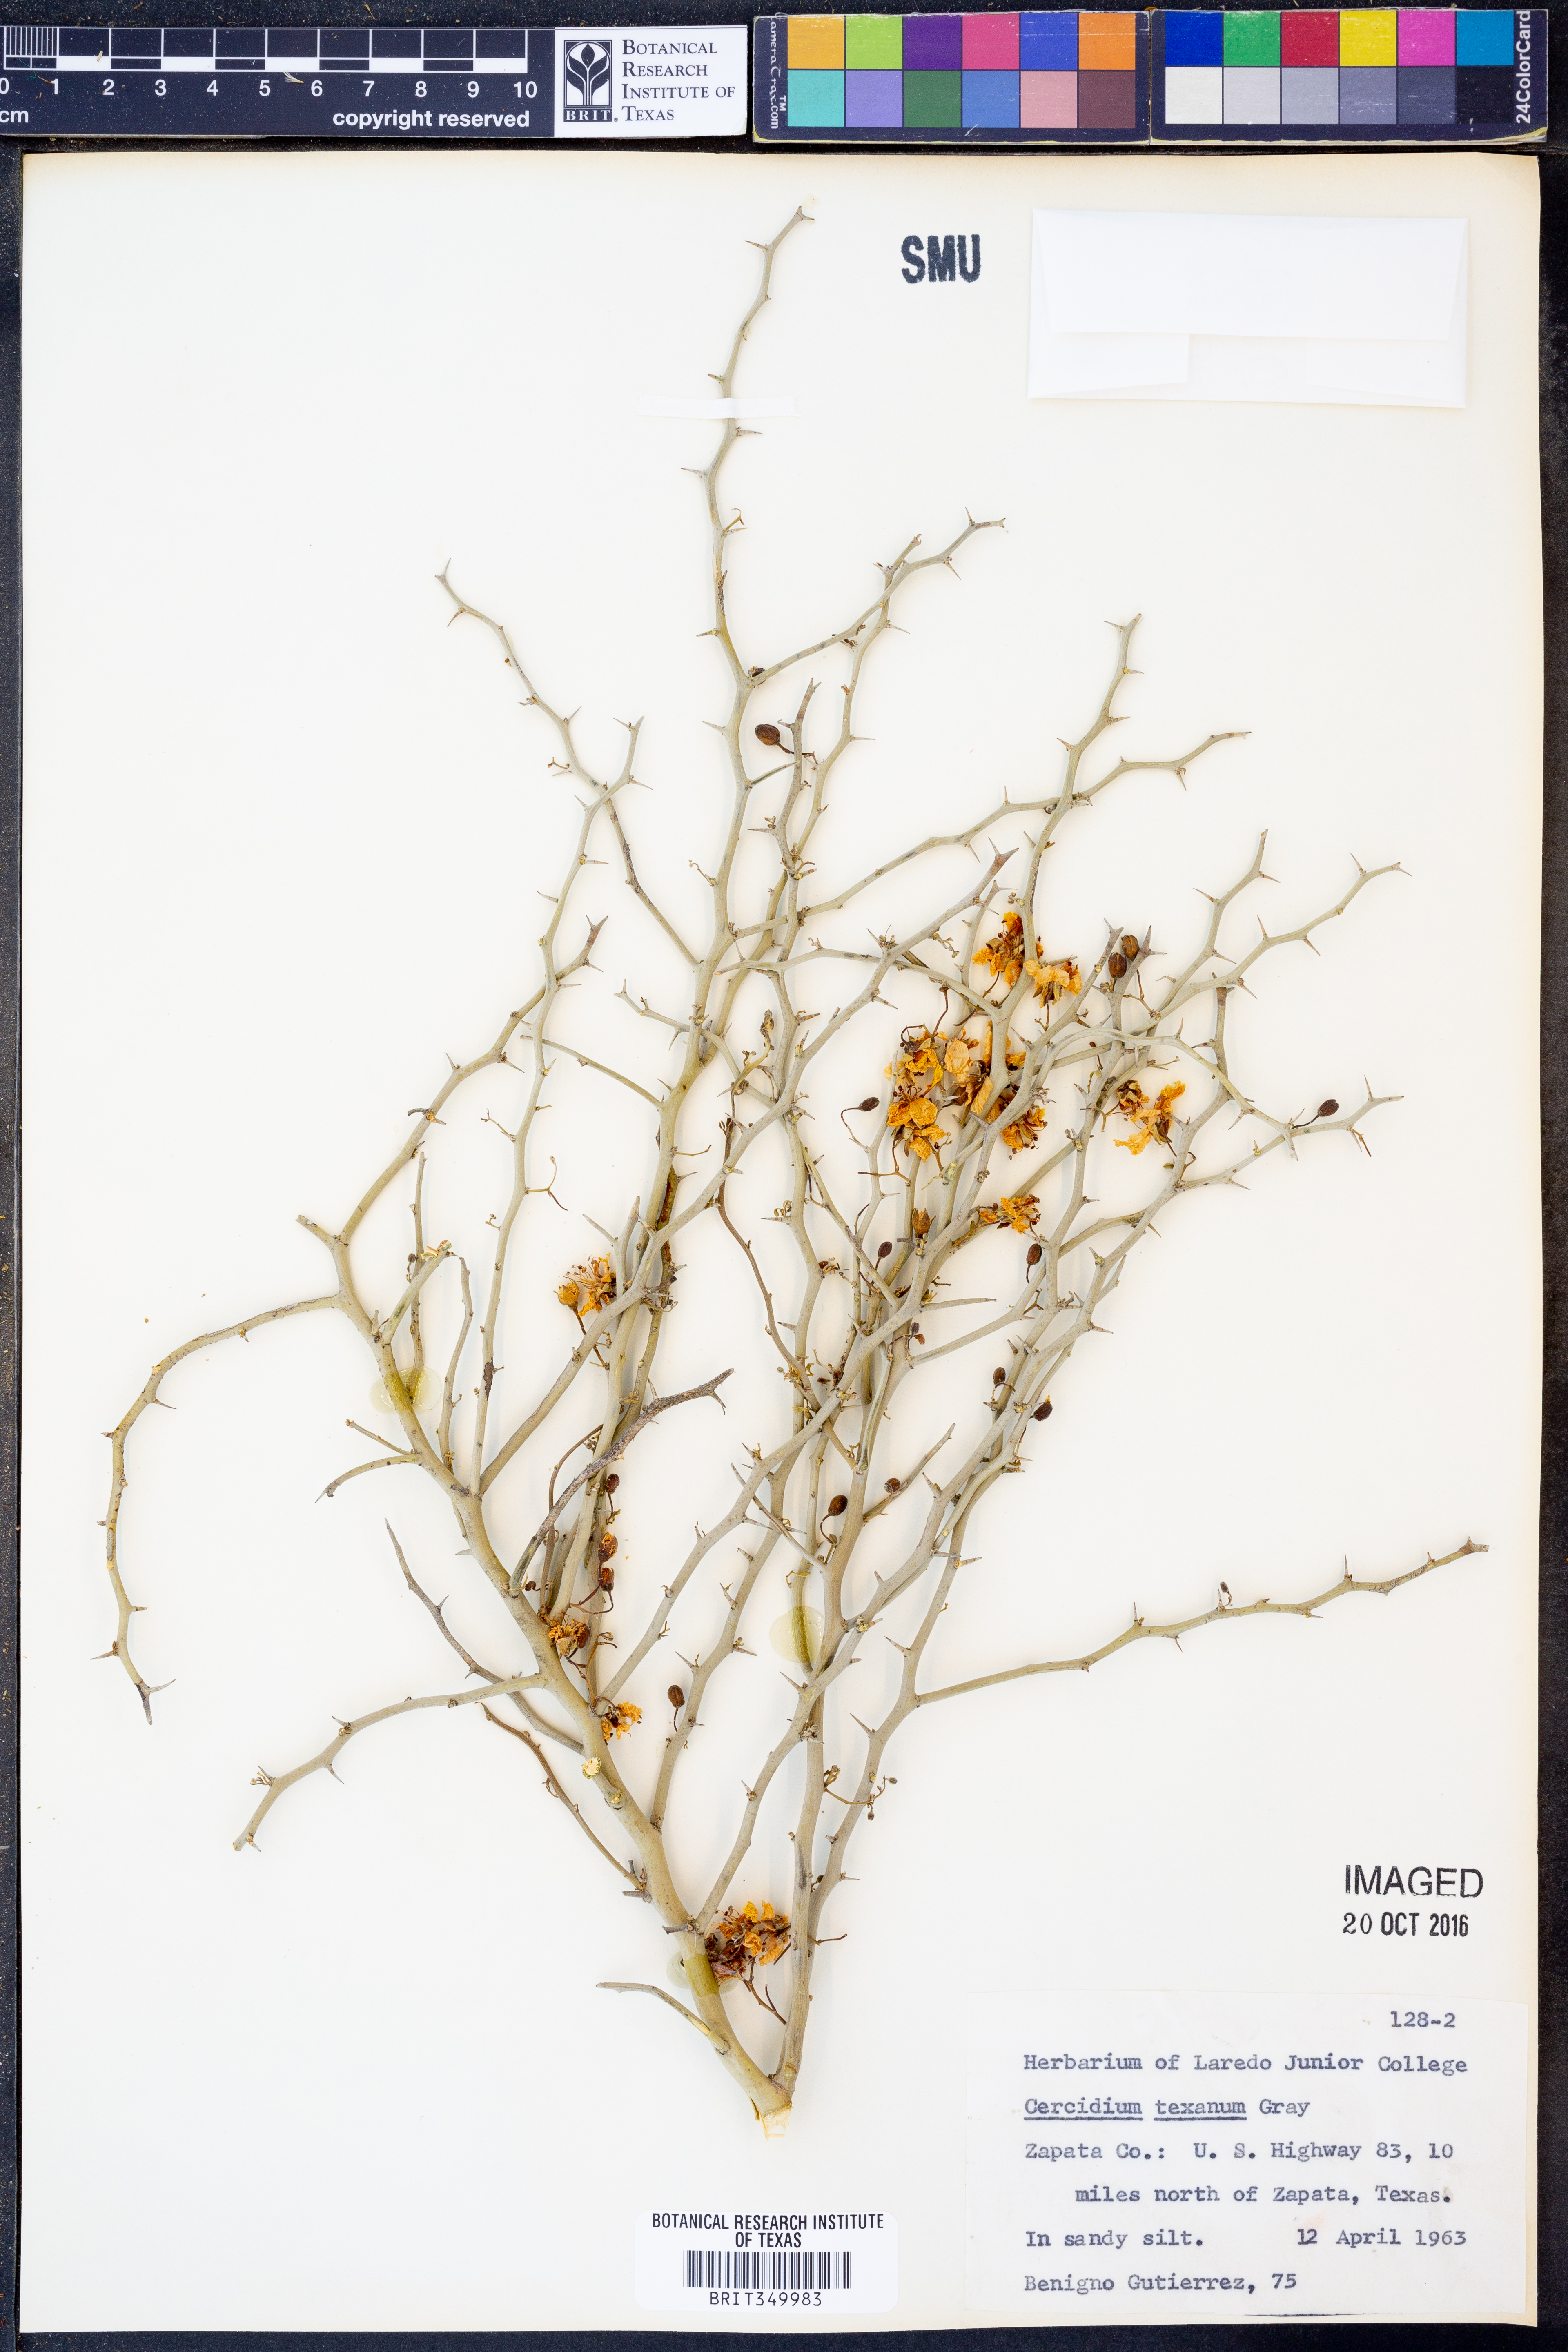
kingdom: Plantae
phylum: Tracheophyta
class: Magnoliopsida
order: Fabales
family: Fabaceae
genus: Parkinsonia
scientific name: Parkinsonia texana
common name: Texas paloverde
